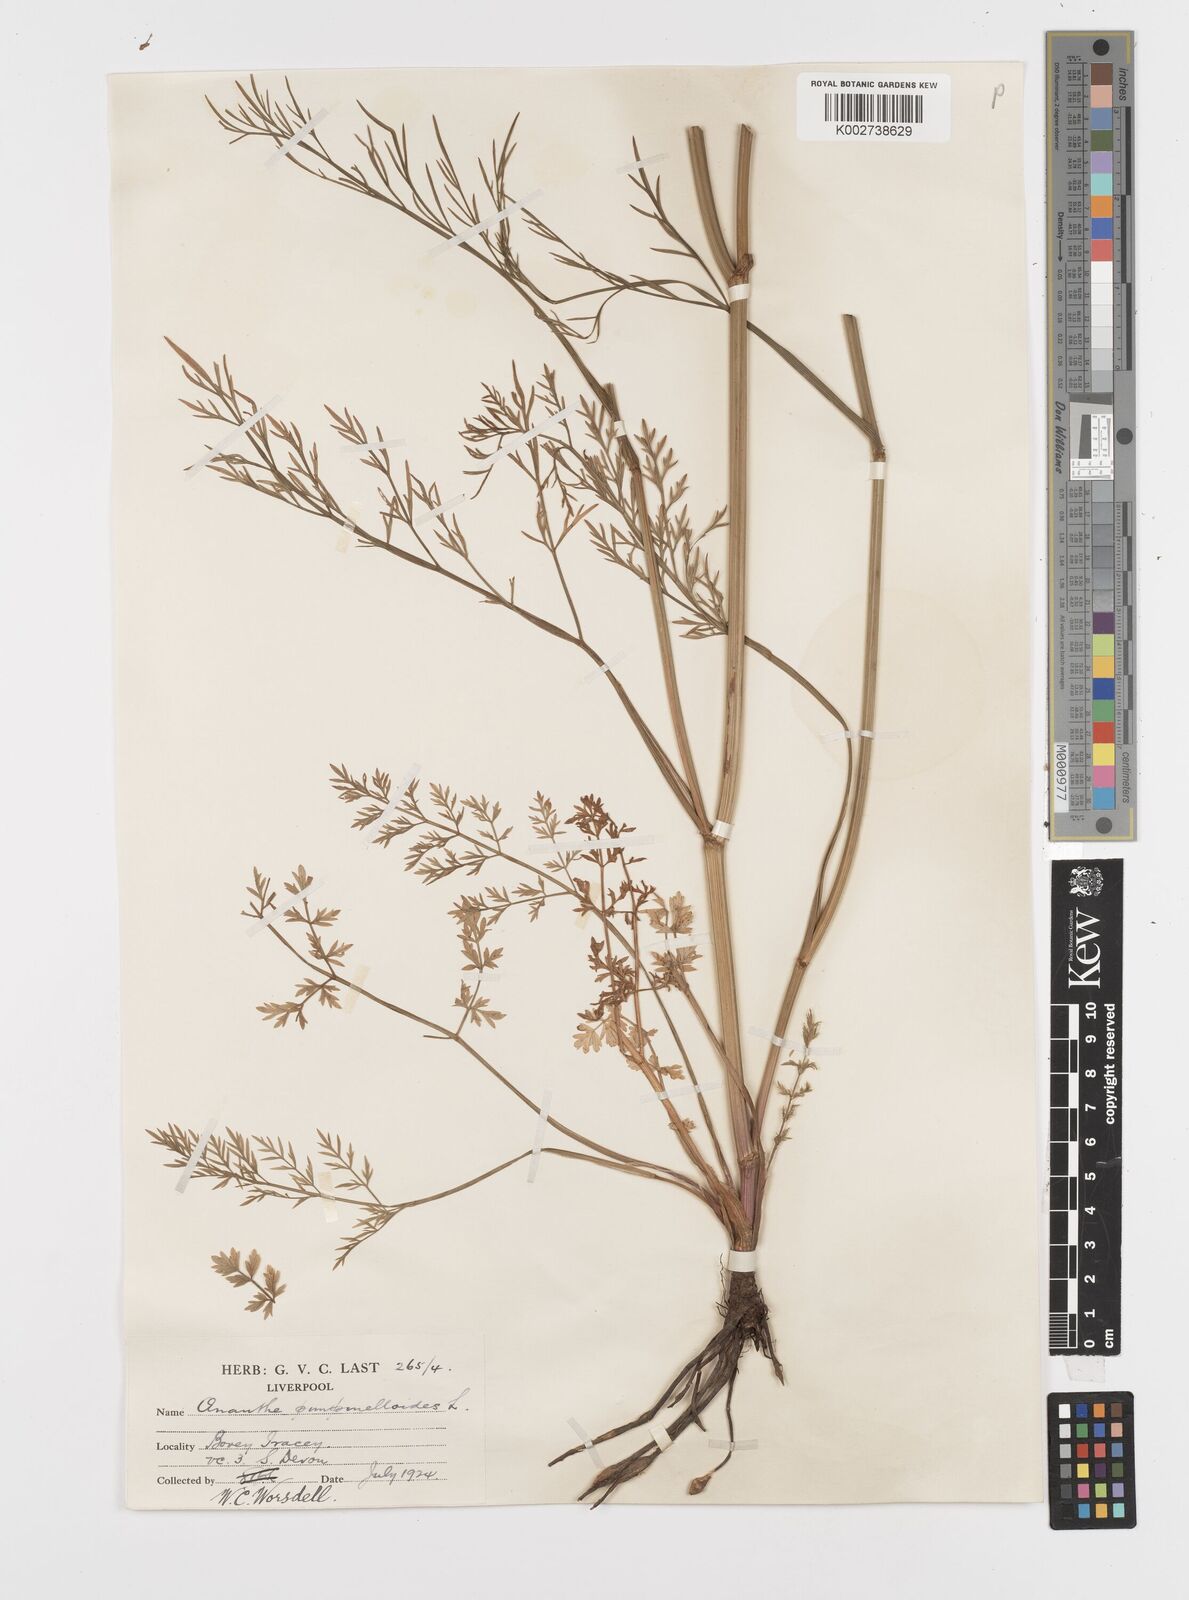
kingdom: Plantae
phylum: Tracheophyta
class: Magnoliopsida
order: Apiales
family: Apiaceae
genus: Oenanthe
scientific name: Oenanthe pimpinelloides
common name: Corky-fruited water-dropwort
